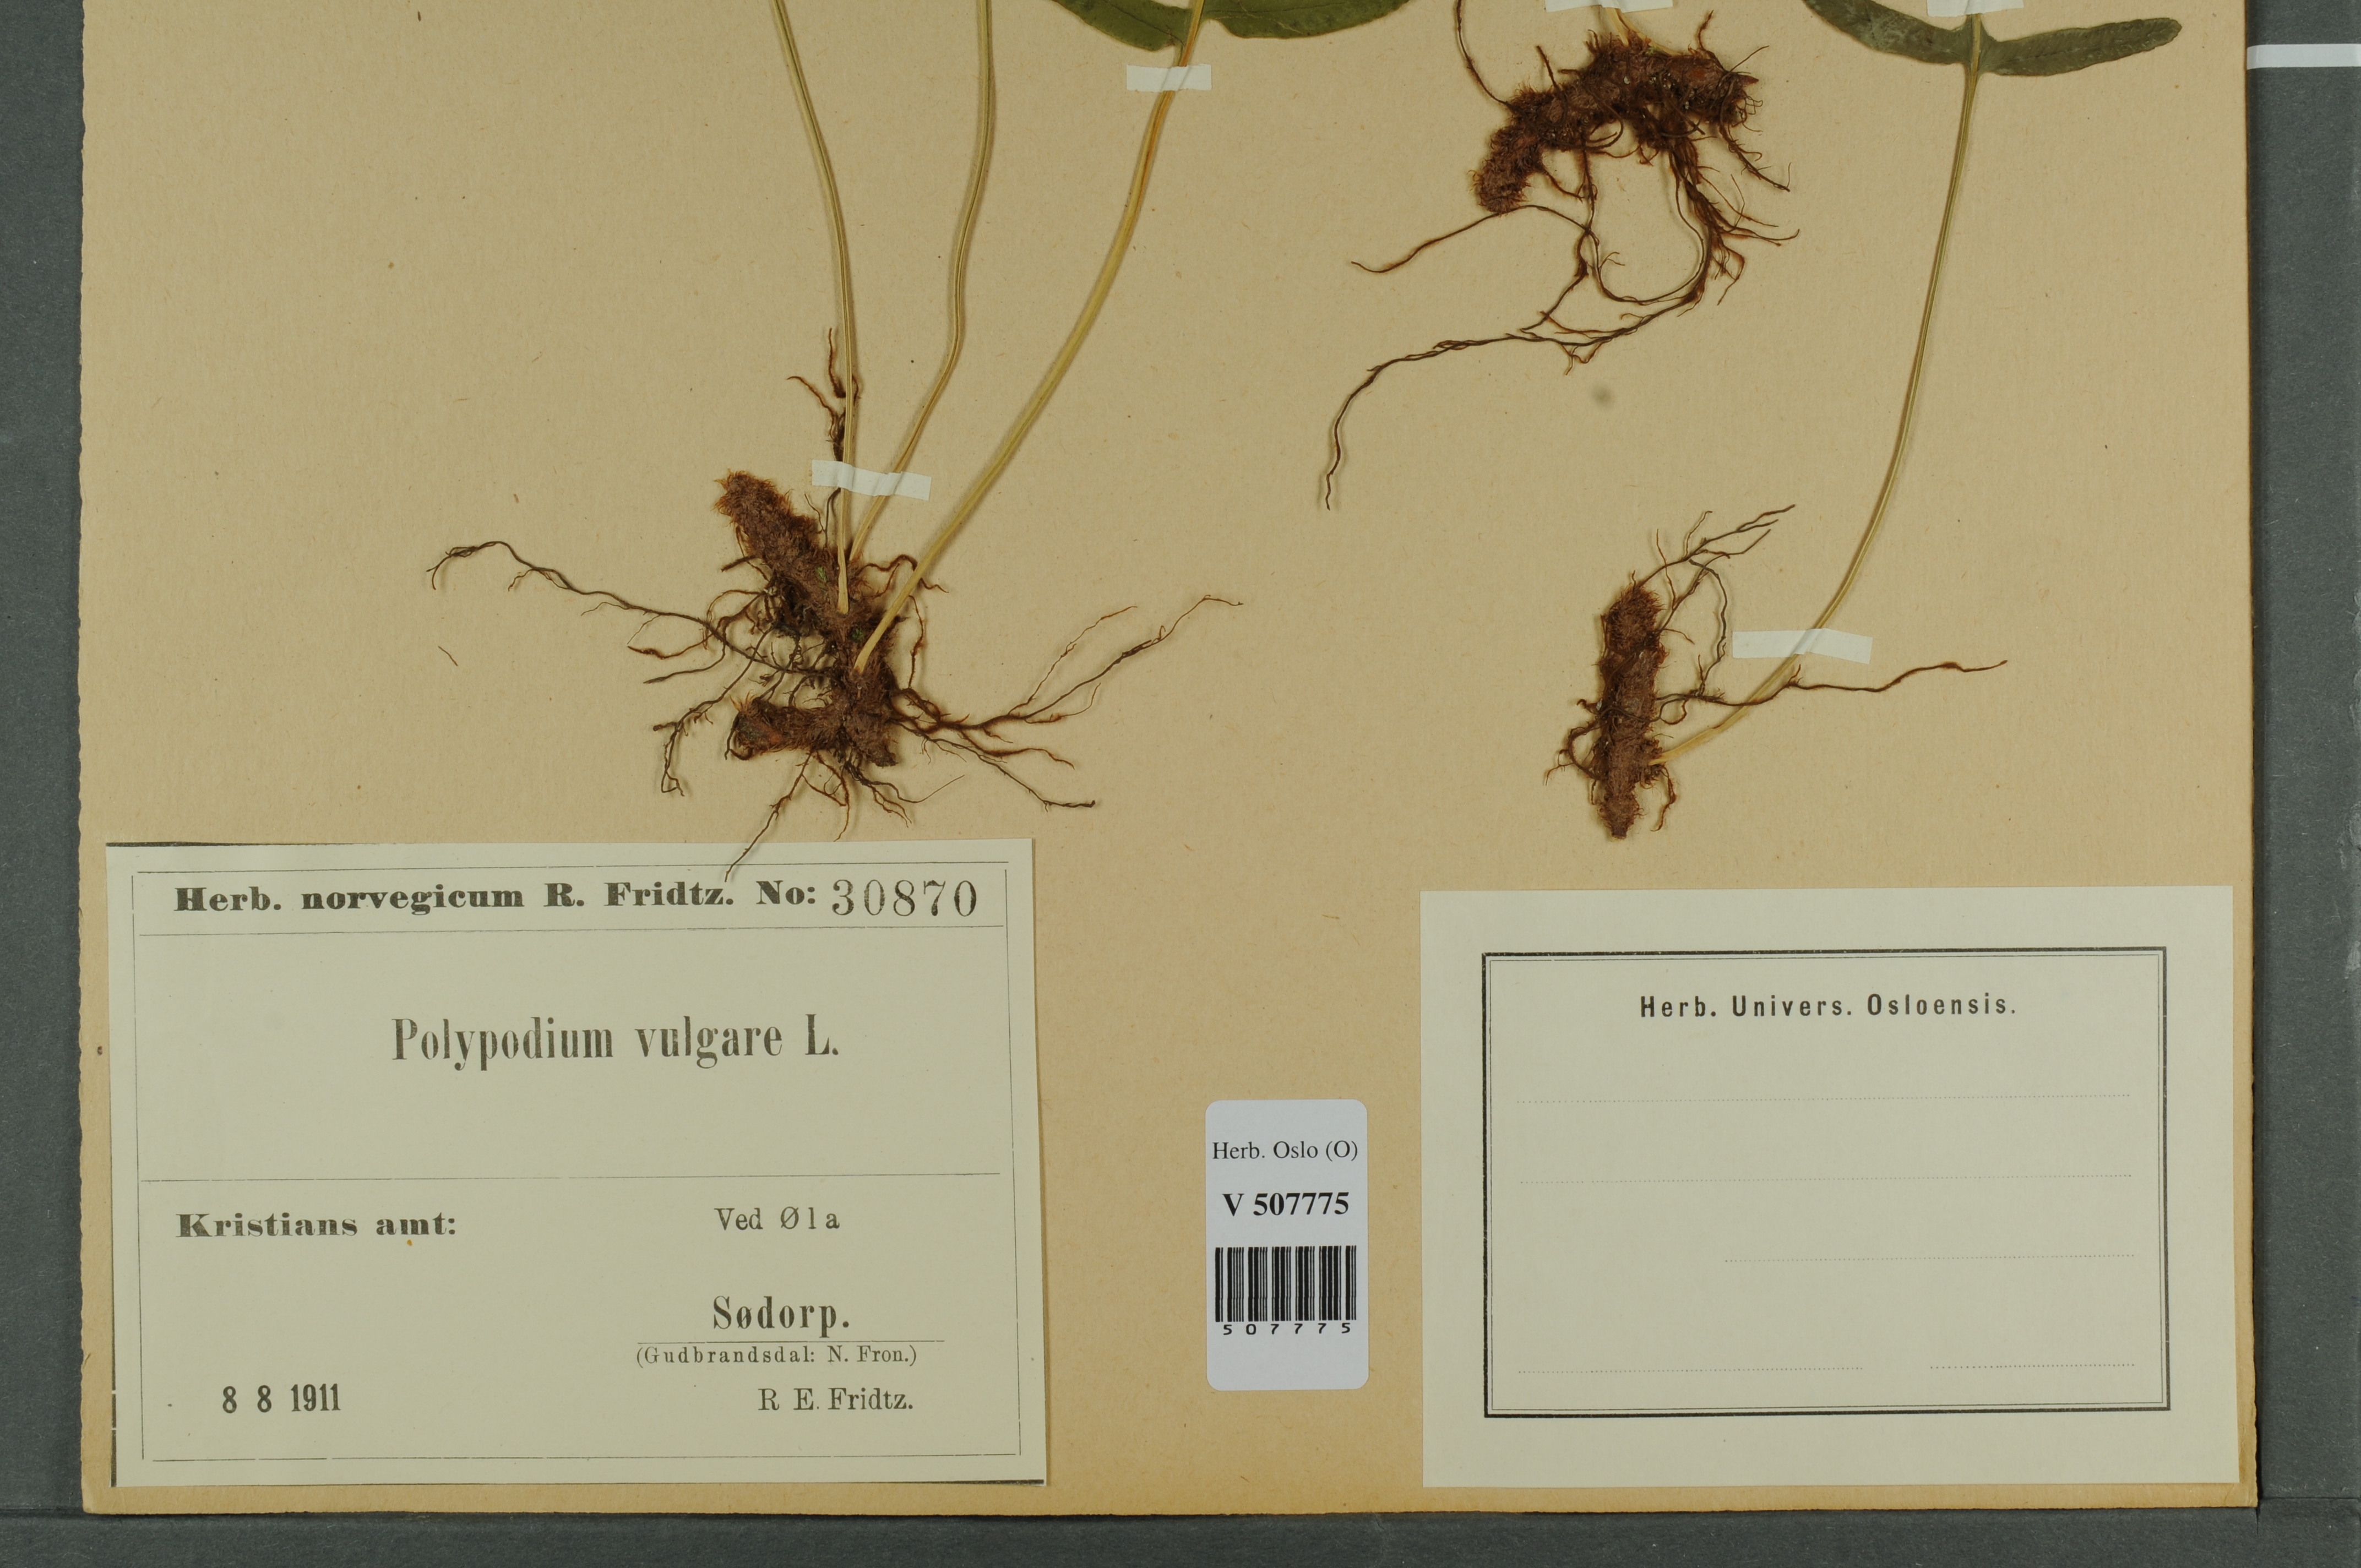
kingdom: Plantae
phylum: Tracheophyta
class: Polypodiopsida
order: Polypodiales
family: Polypodiaceae
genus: Polypodium
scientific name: Polypodium vulgare
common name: Common polypody
